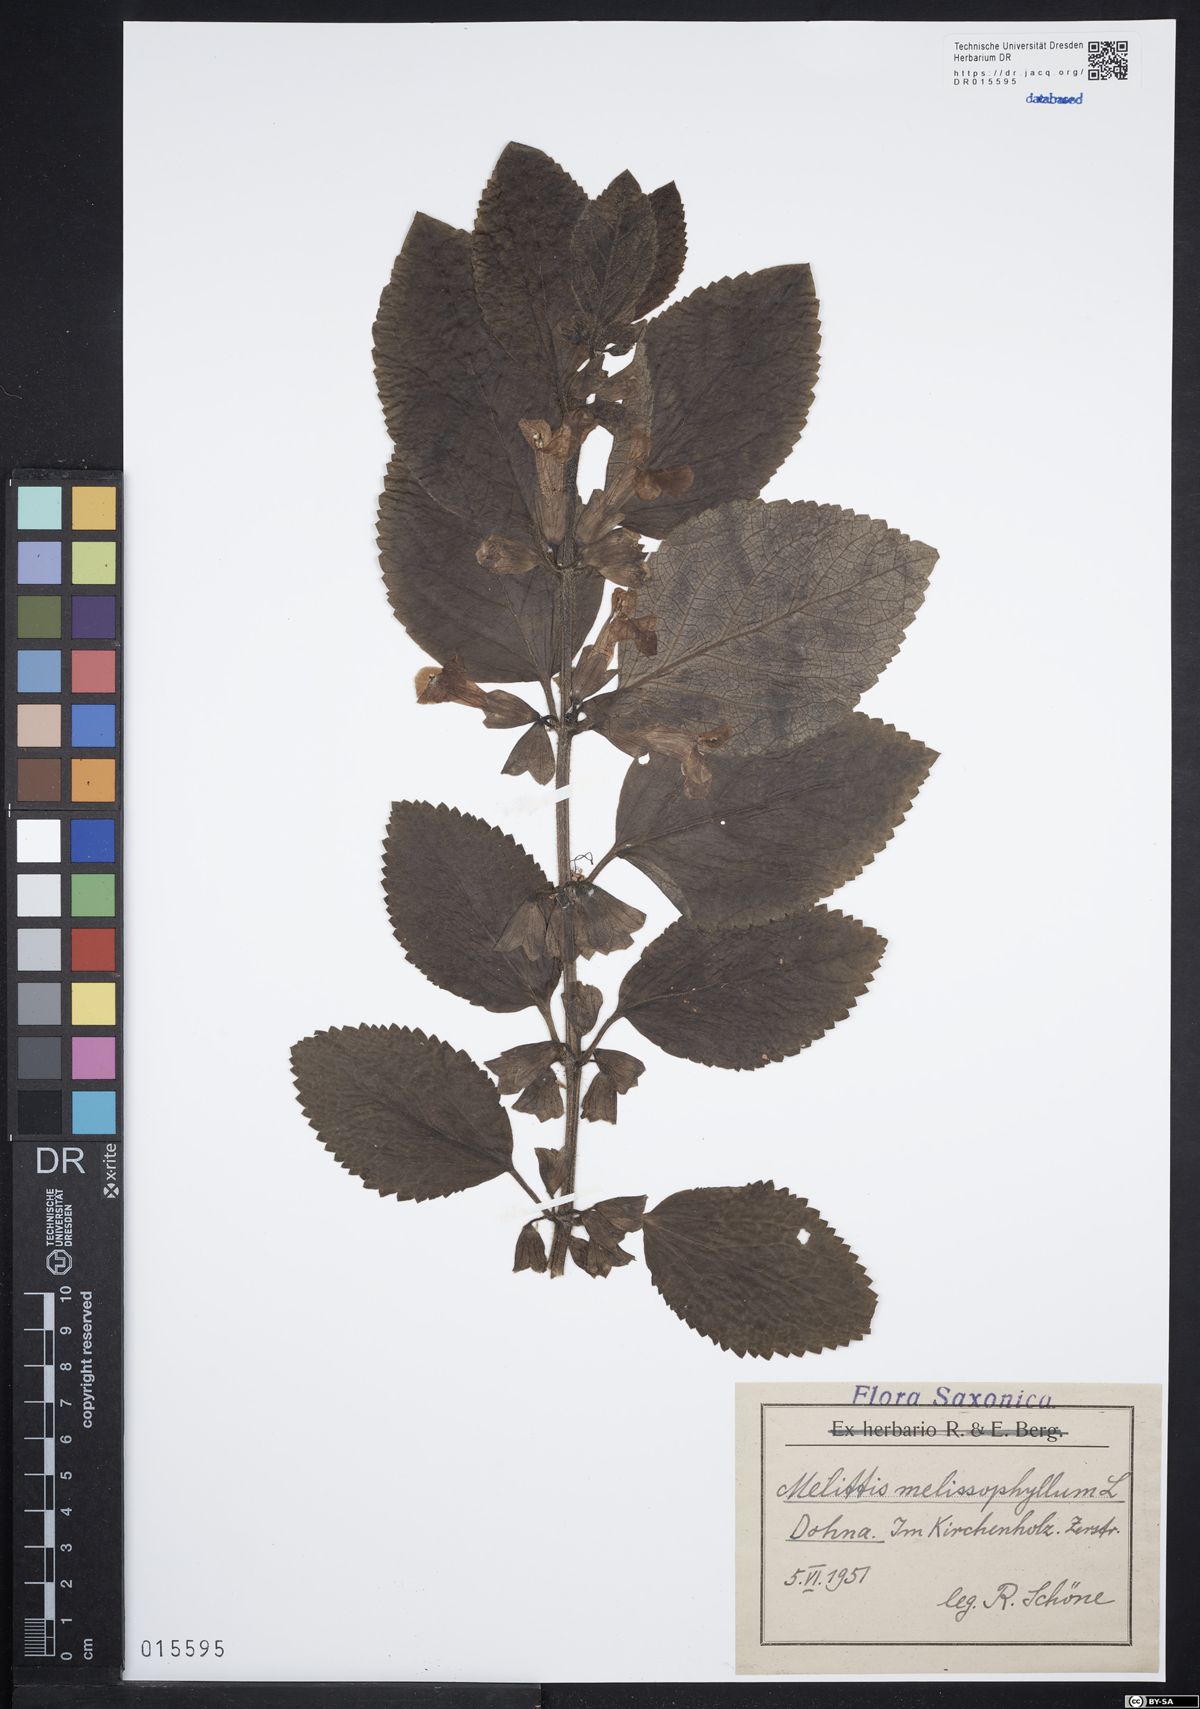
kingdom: Plantae
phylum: Tracheophyta
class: Magnoliopsida
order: Lamiales
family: Lamiaceae
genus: Melittis
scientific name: Melittis melissophyllum
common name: Bastard balm
